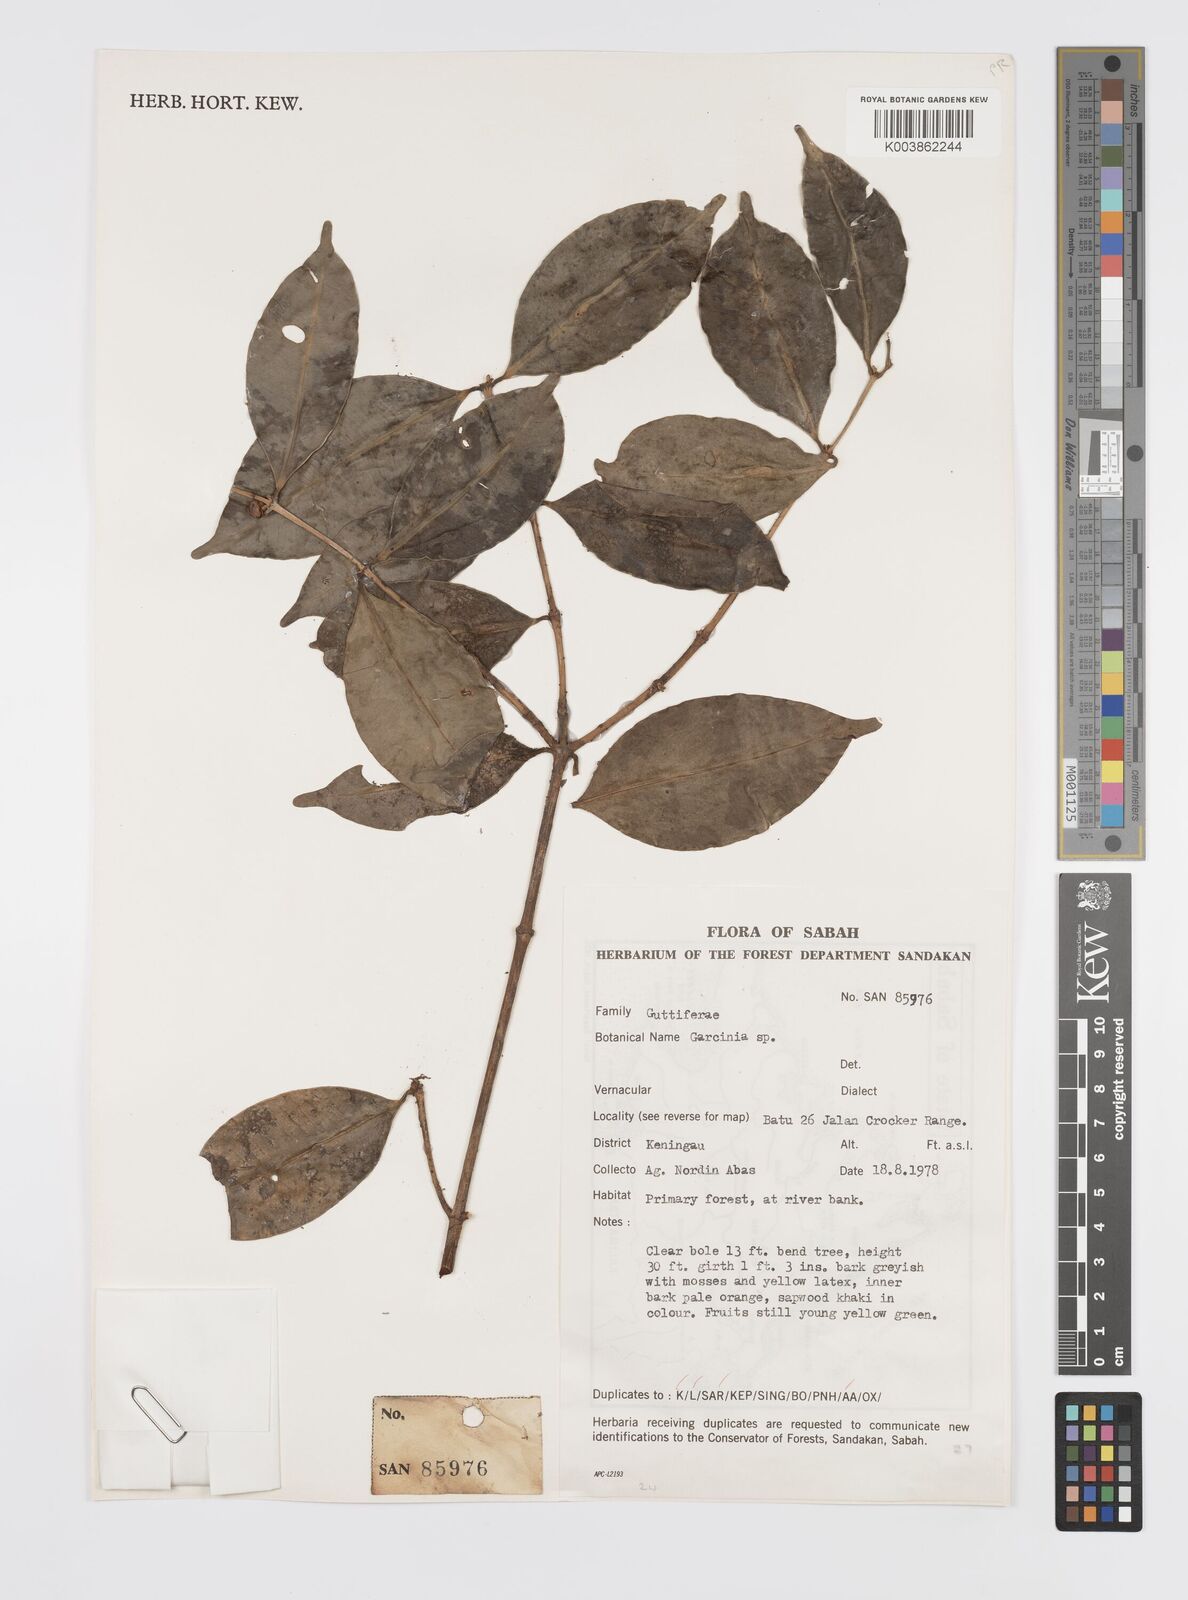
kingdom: Plantae
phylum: Tracheophyta
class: Magnoliopsida
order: Malpighiales
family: Clusiaceae
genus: Garcinia
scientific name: Garcinia
